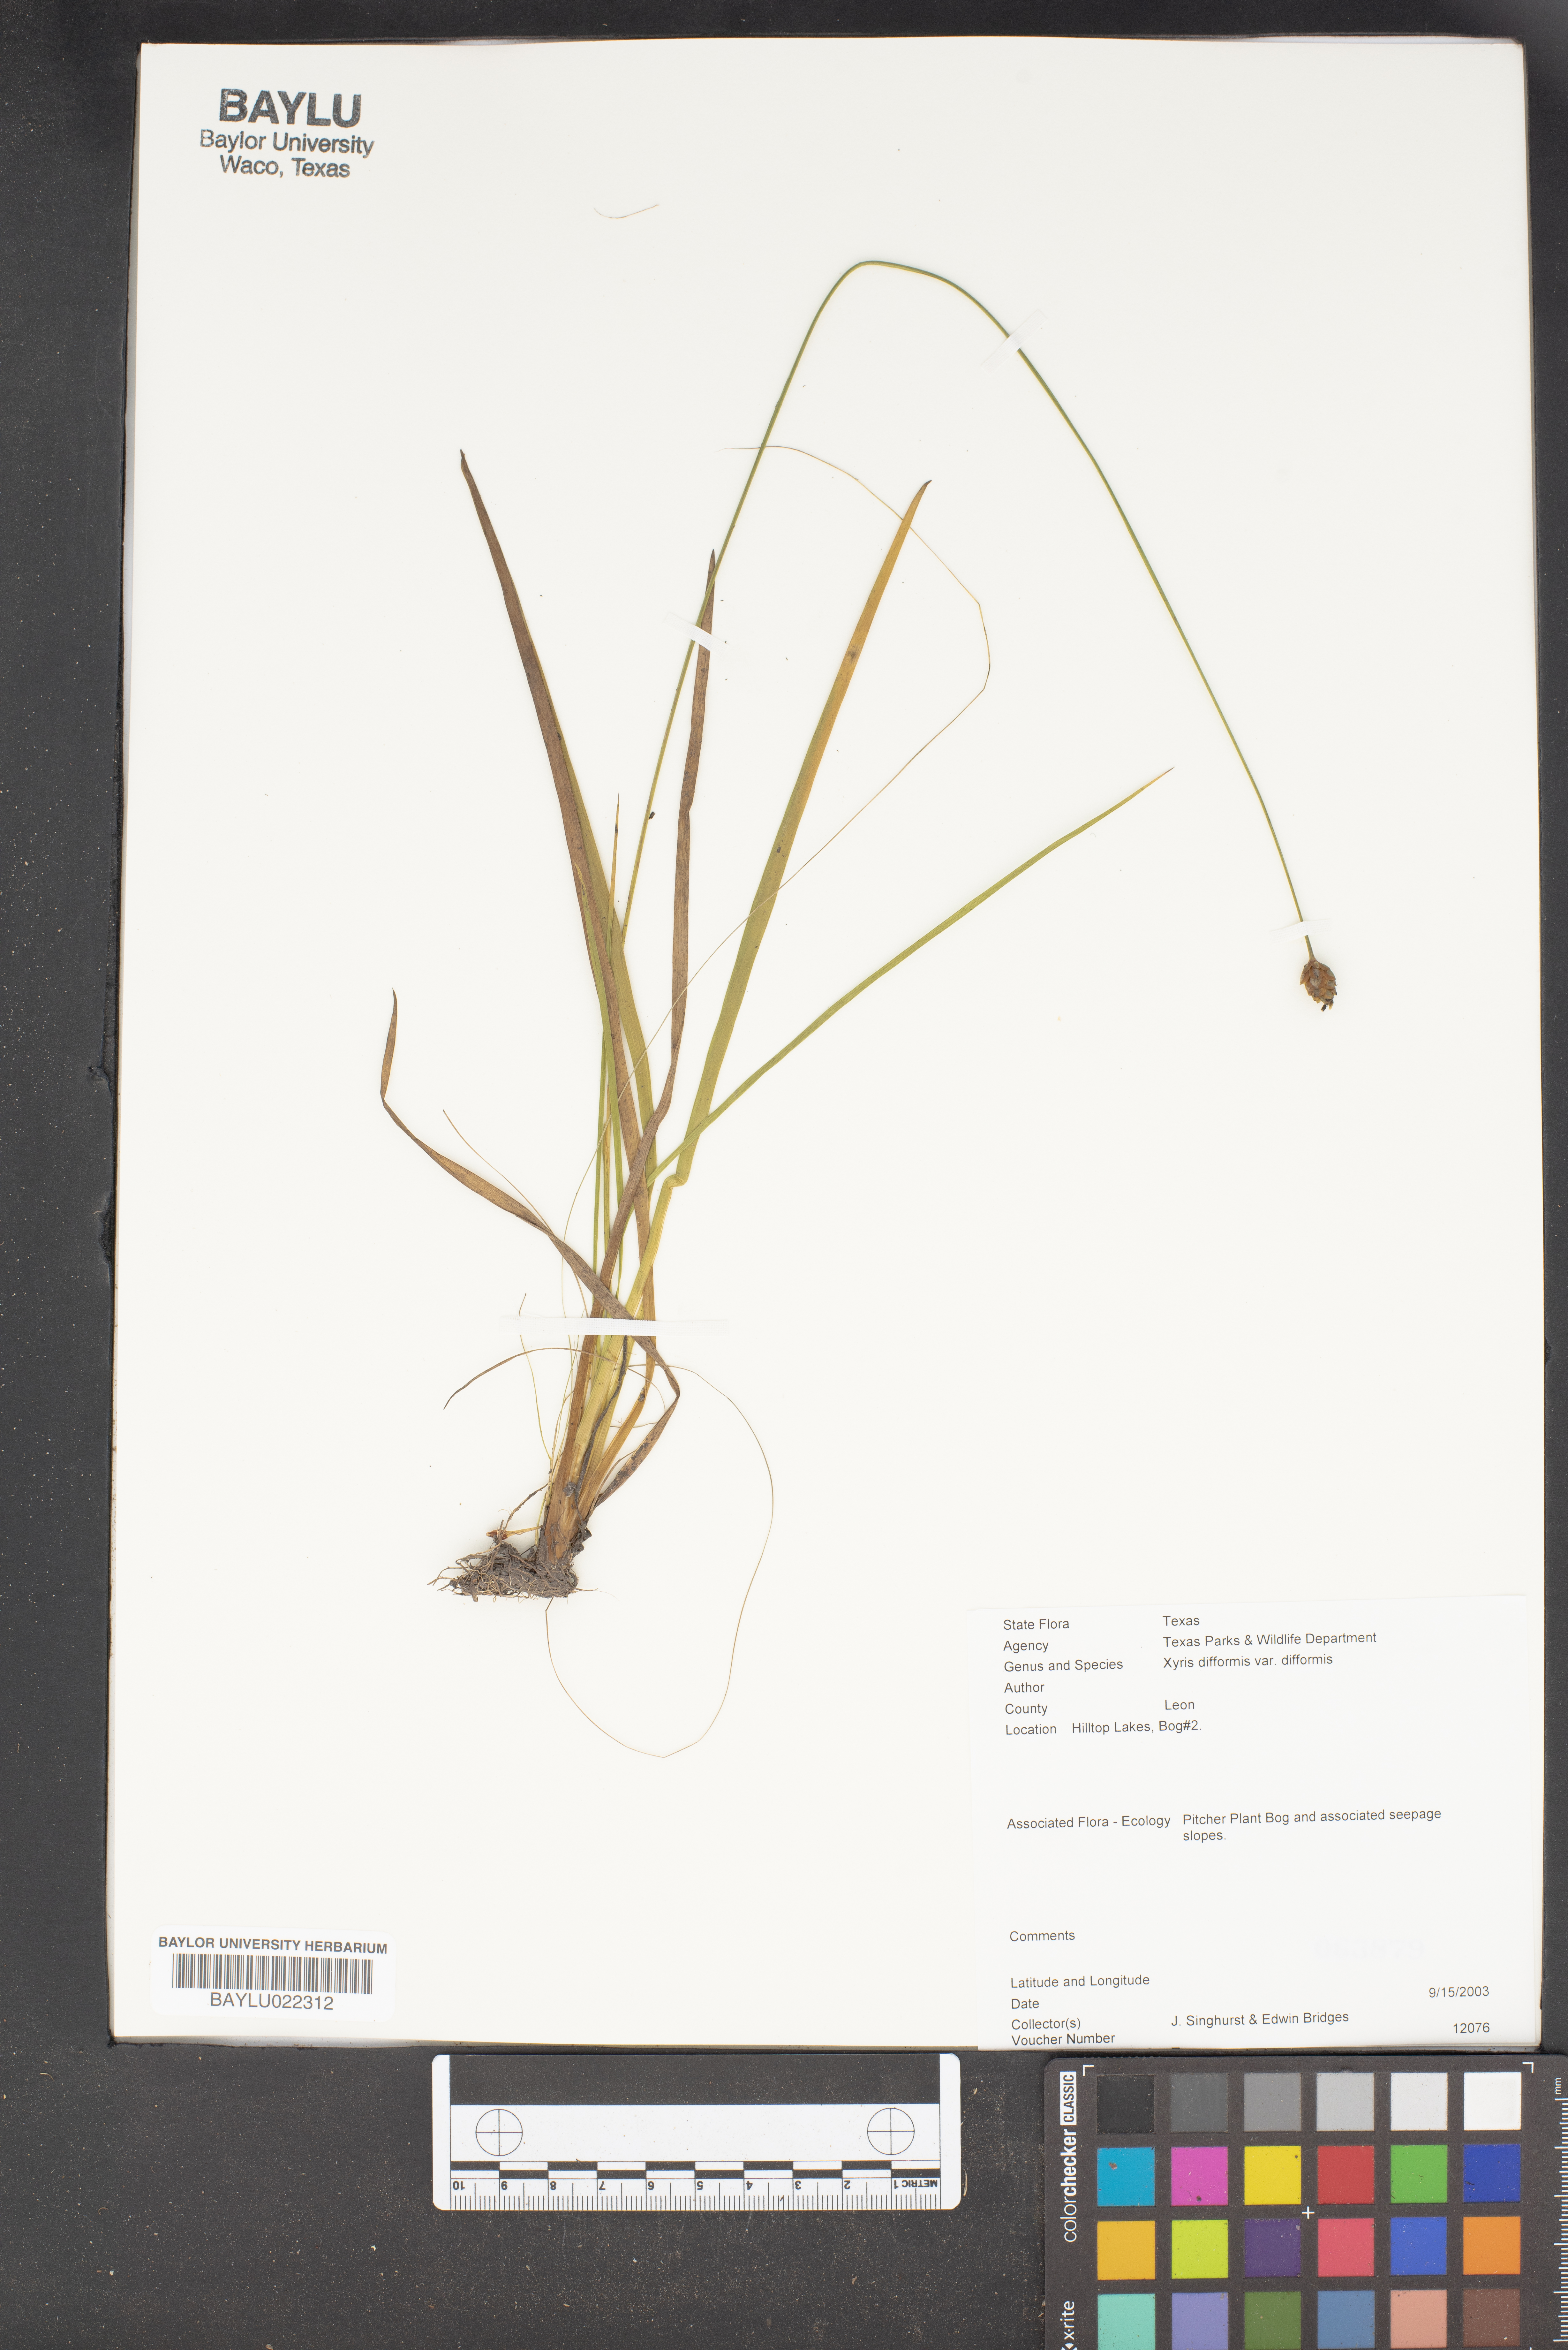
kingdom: Plantae
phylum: Tracheophyta
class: Liliopsida
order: Poales
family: Xyridaceae
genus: Xyris
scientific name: Xyris difformis
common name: Bog yellow-eyed-grass
